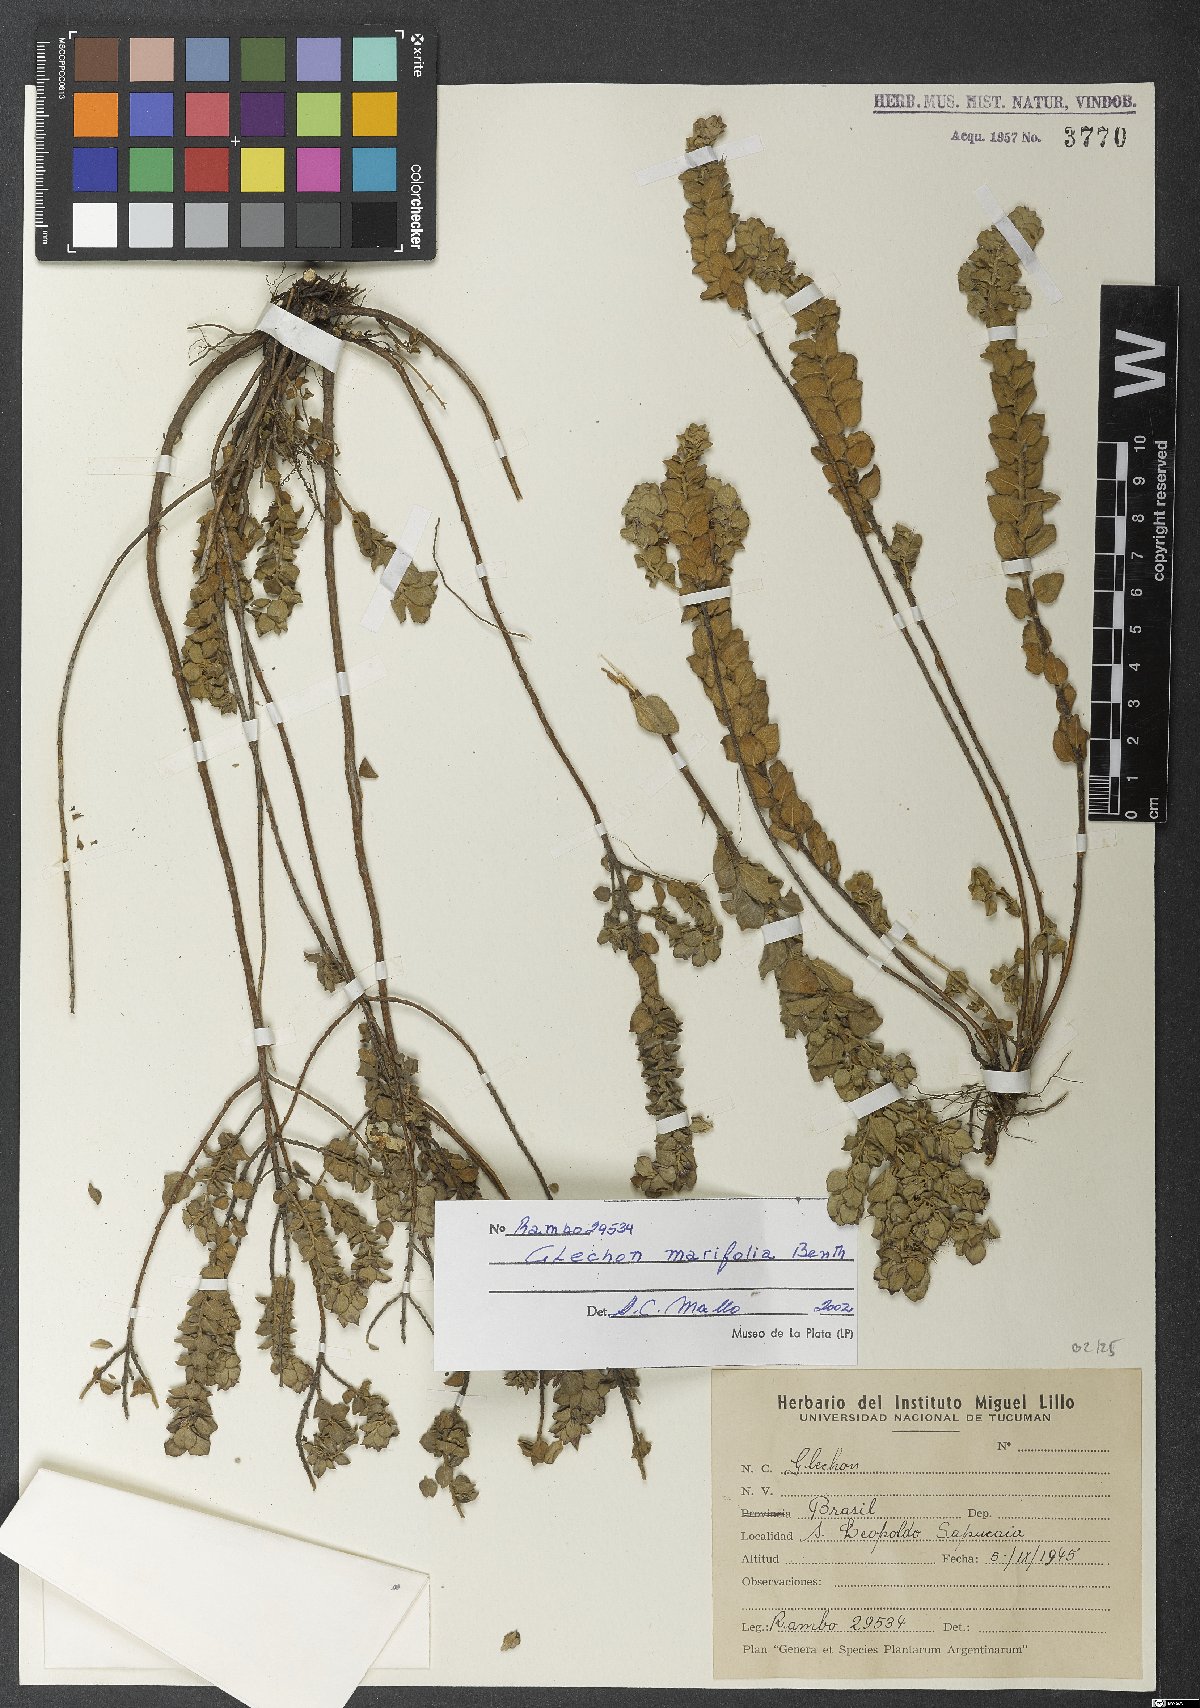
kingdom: Plantae
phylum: Tracheophyta
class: Magnoliopsida
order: Lamiales
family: Lamiaceae
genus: Glechon
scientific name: Glechon marifolia
